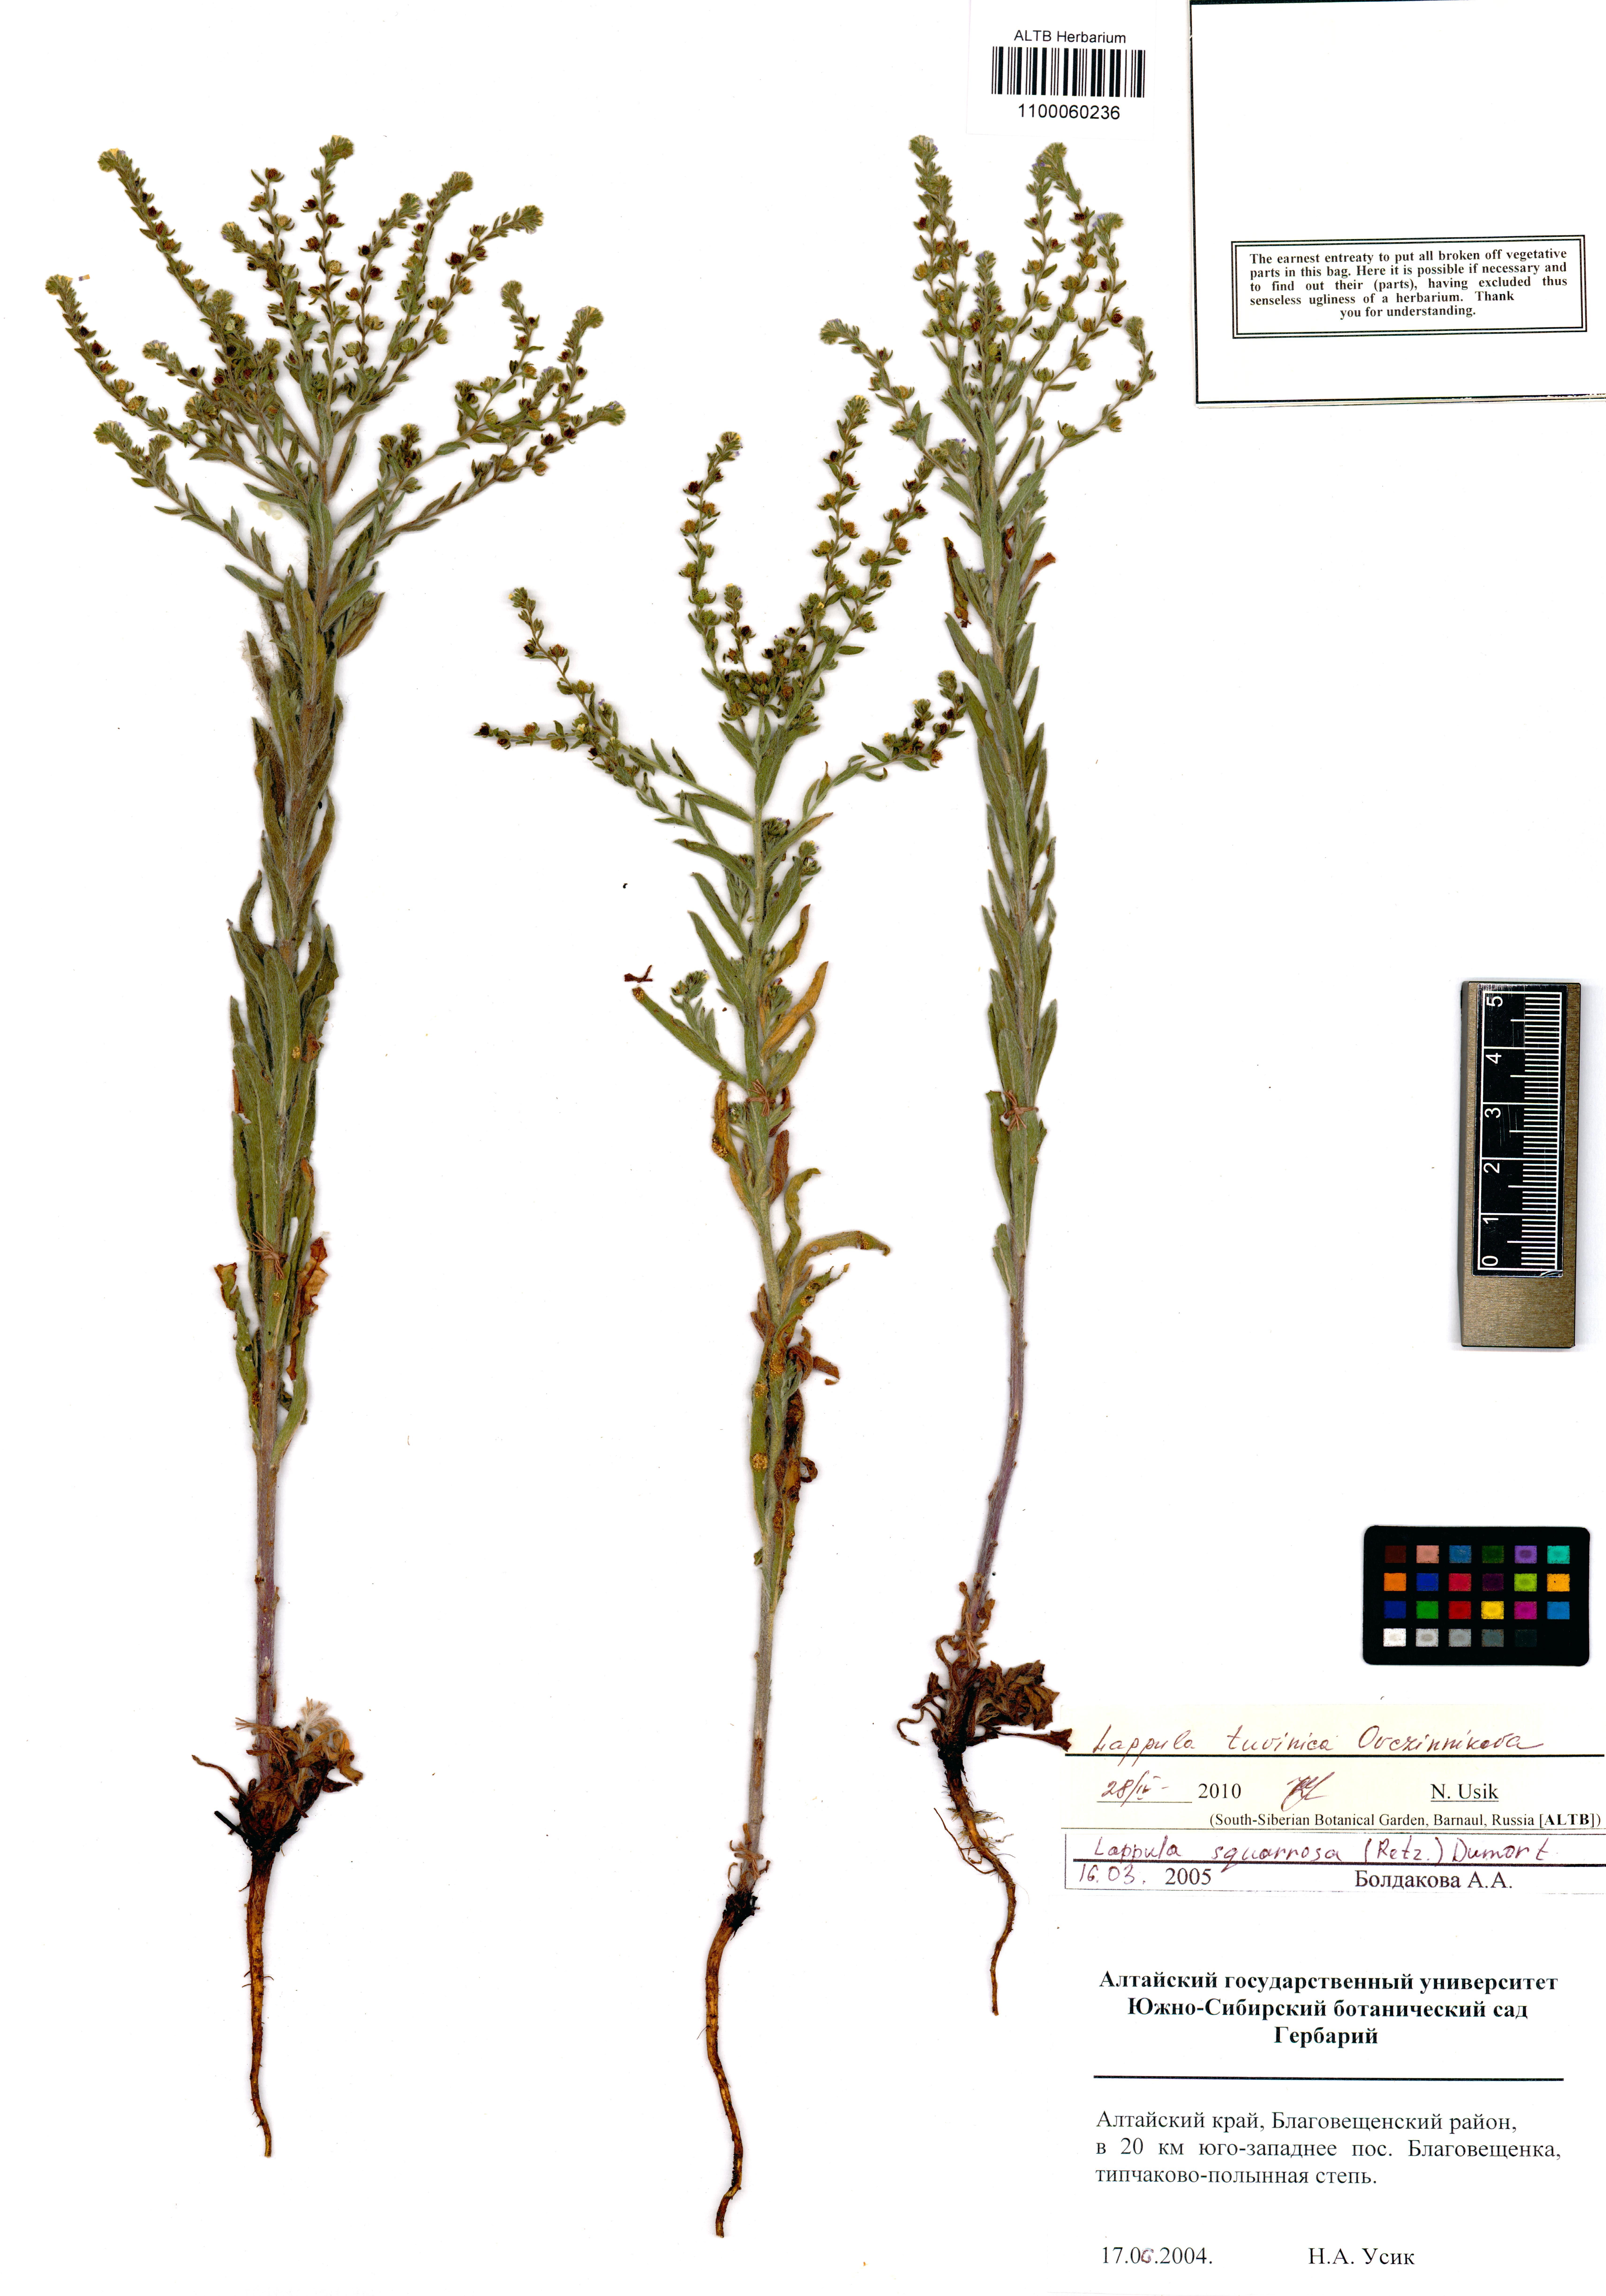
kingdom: Plantae
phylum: Tracheophyta
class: Magnoliopsida
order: Boraginales
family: Boraginaceae
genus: Lappula
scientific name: Lappula tuvinica
